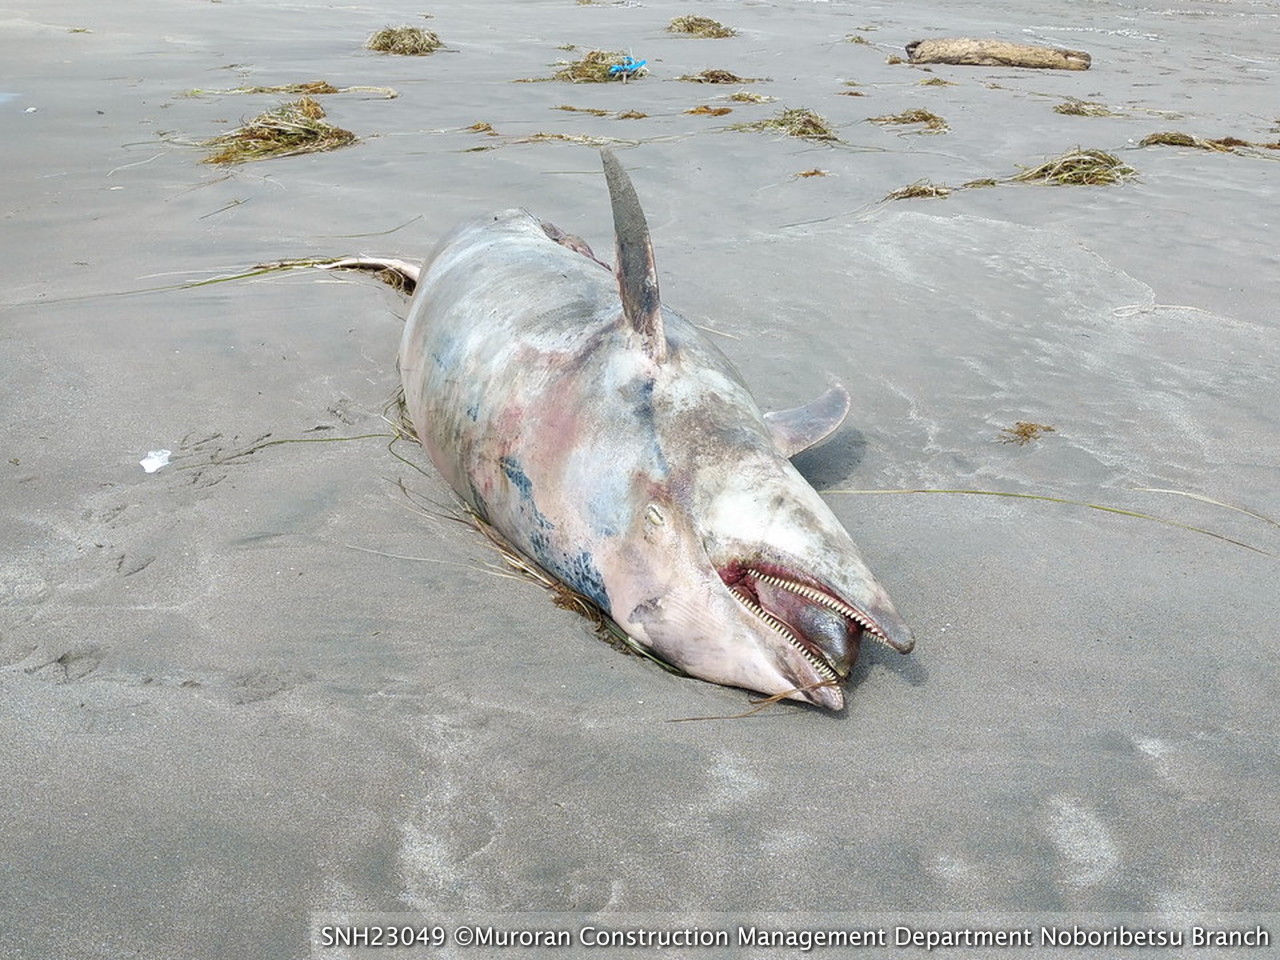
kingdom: Animalia
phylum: Chordata
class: Mammalia
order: Cetacea
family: Delphinidae
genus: Lagenorhynchus
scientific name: Lagenorhynchus obliquidens
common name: Pacific white-sided dolphin
